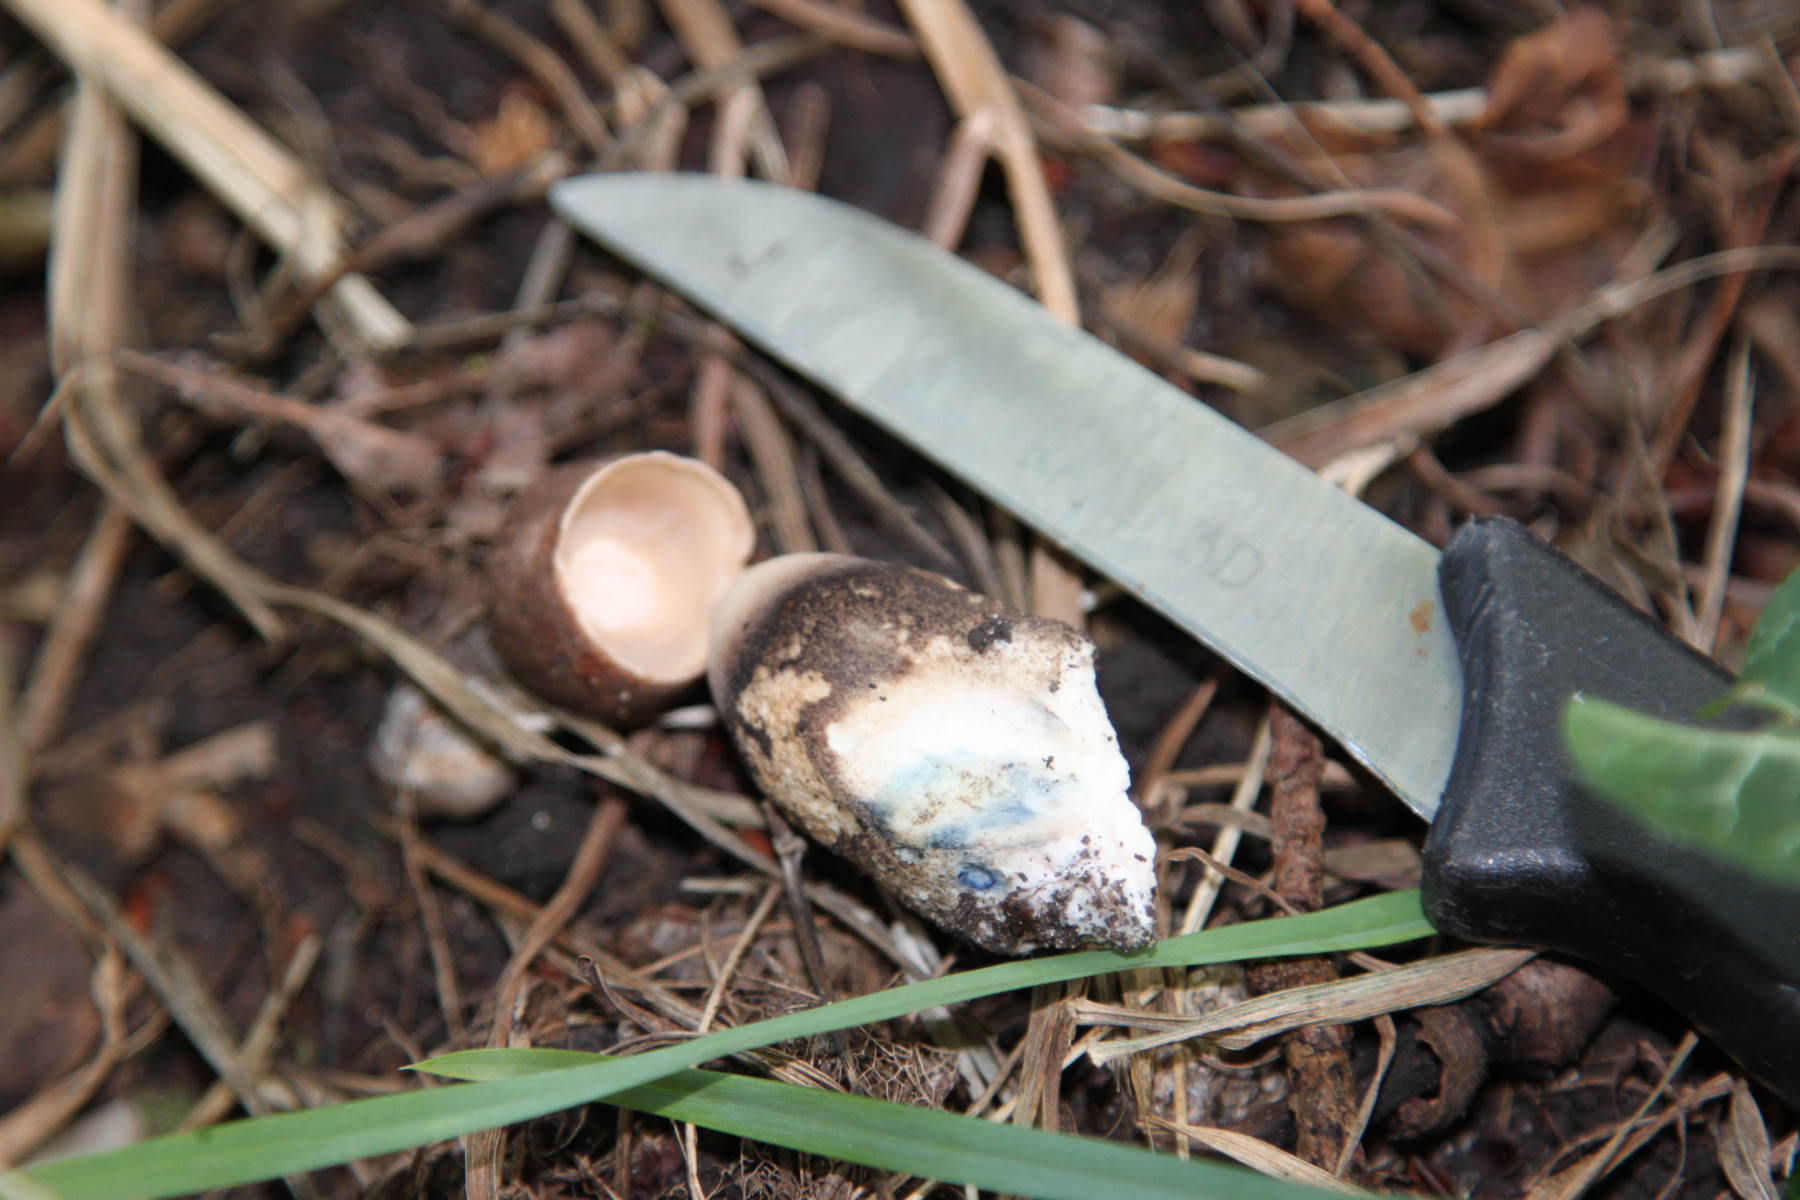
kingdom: Fungi
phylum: Basidiomycota
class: Agaricomycetes
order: Boletales
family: Boletaceae
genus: Leccinum
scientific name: Leccinum duriusculum
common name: poppel-skælrørhat
